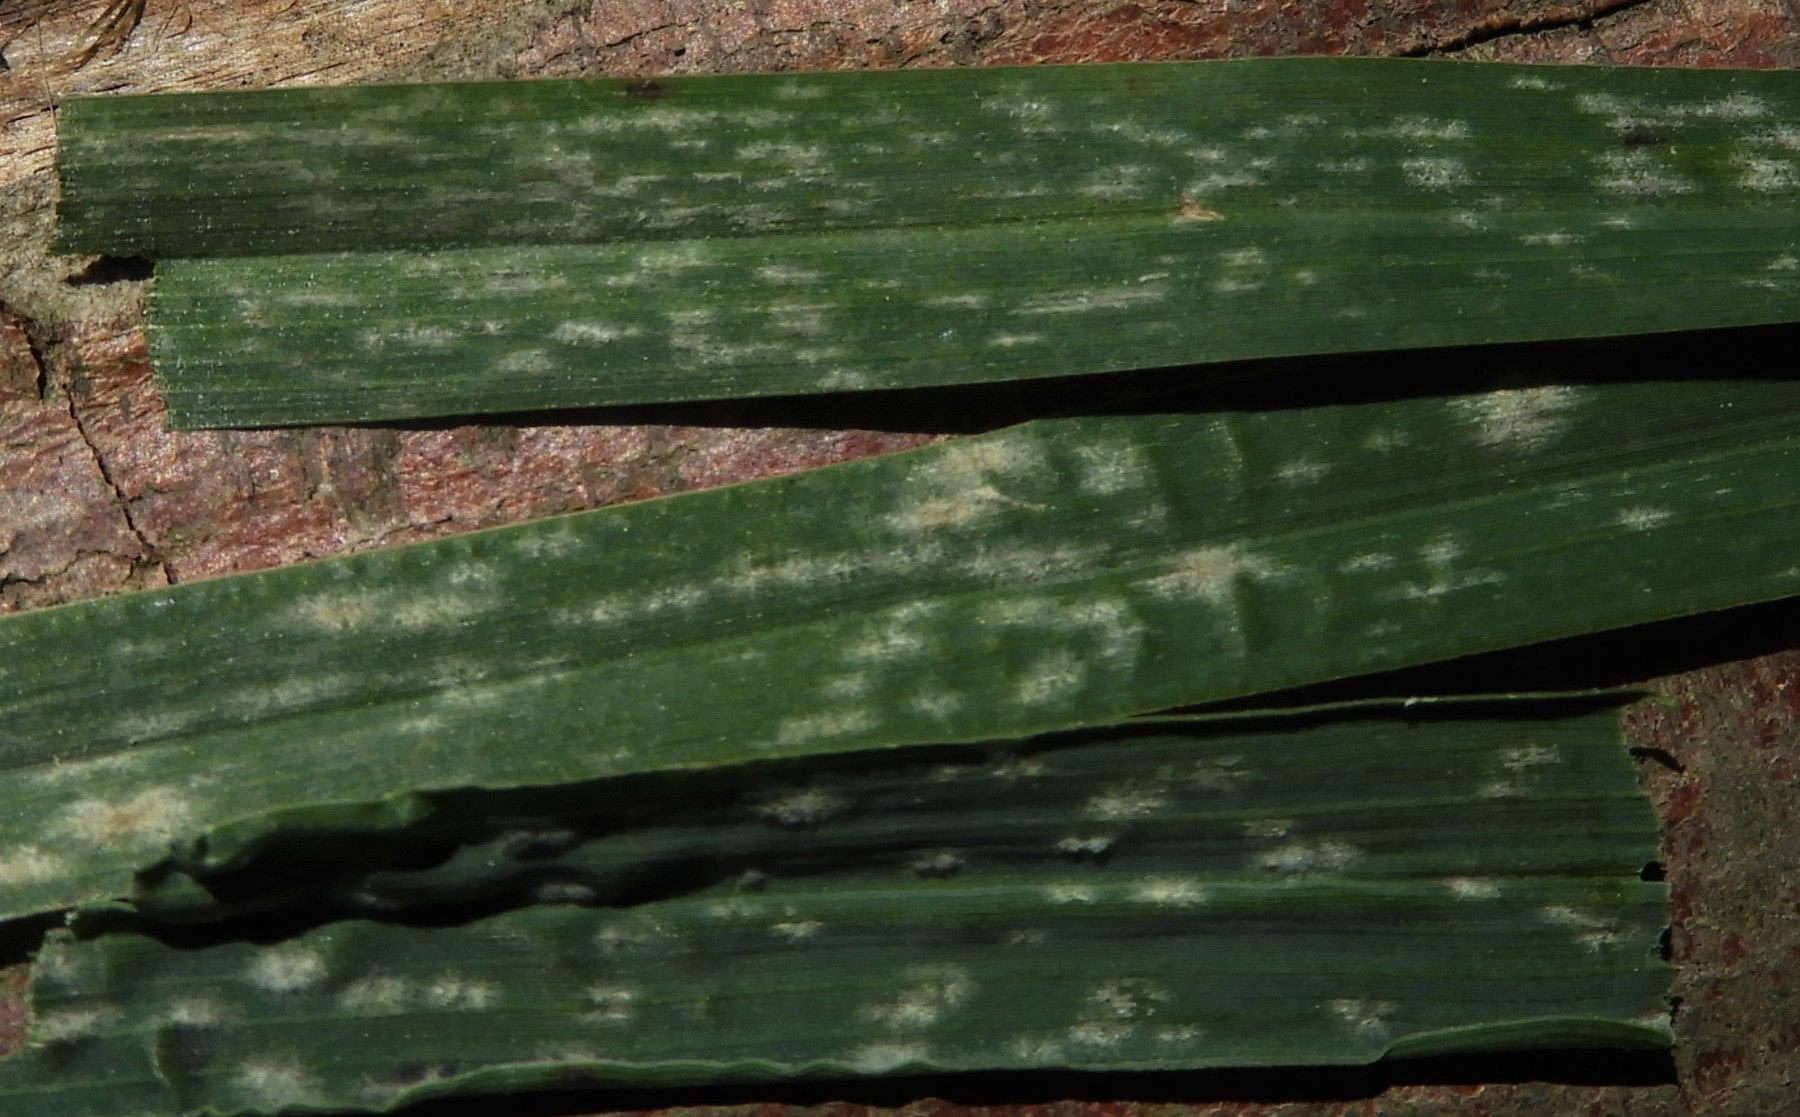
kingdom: Fungi
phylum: Ascomycota
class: Leotiomycetes
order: Helotiales
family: Erysiphaceae
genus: Blumeria
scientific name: Blumeria graminis
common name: græs-meldug
